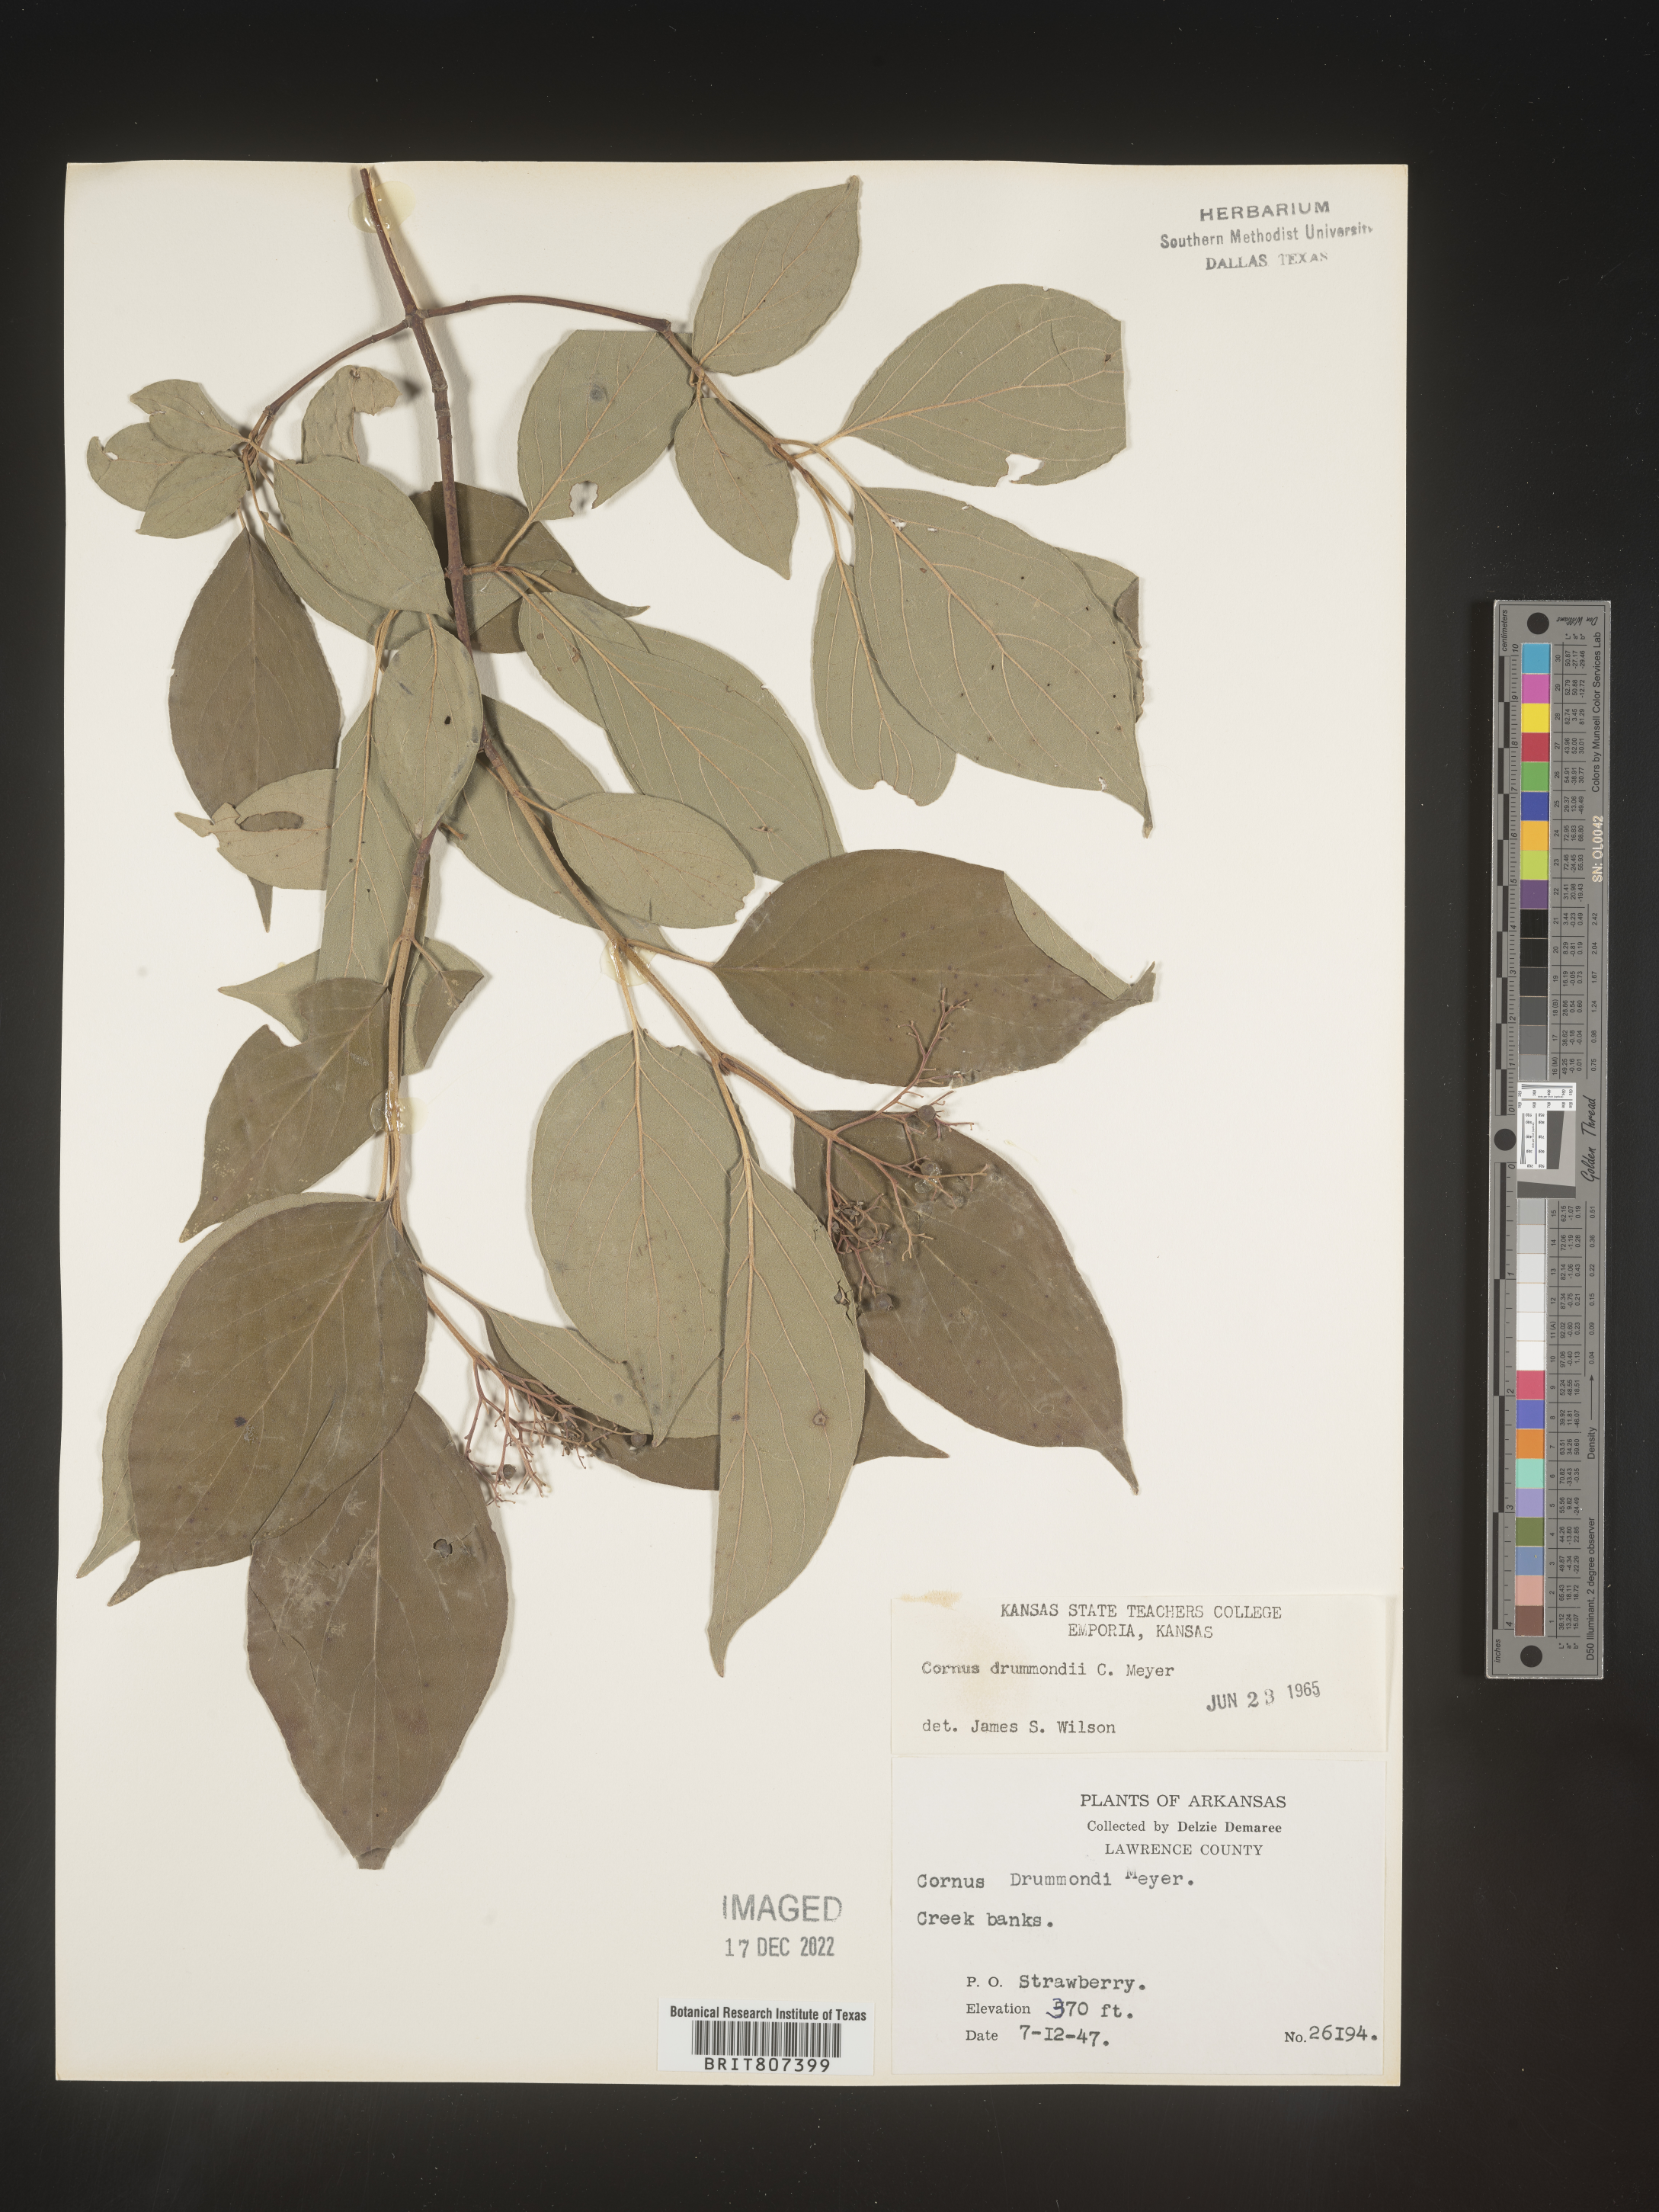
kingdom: Plantae
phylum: Tracheophyta
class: Magnoliopsida
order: Cornales
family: Cornaceae
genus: Cornus
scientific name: Cornus drummondii
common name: Rough-leaf dogwood
